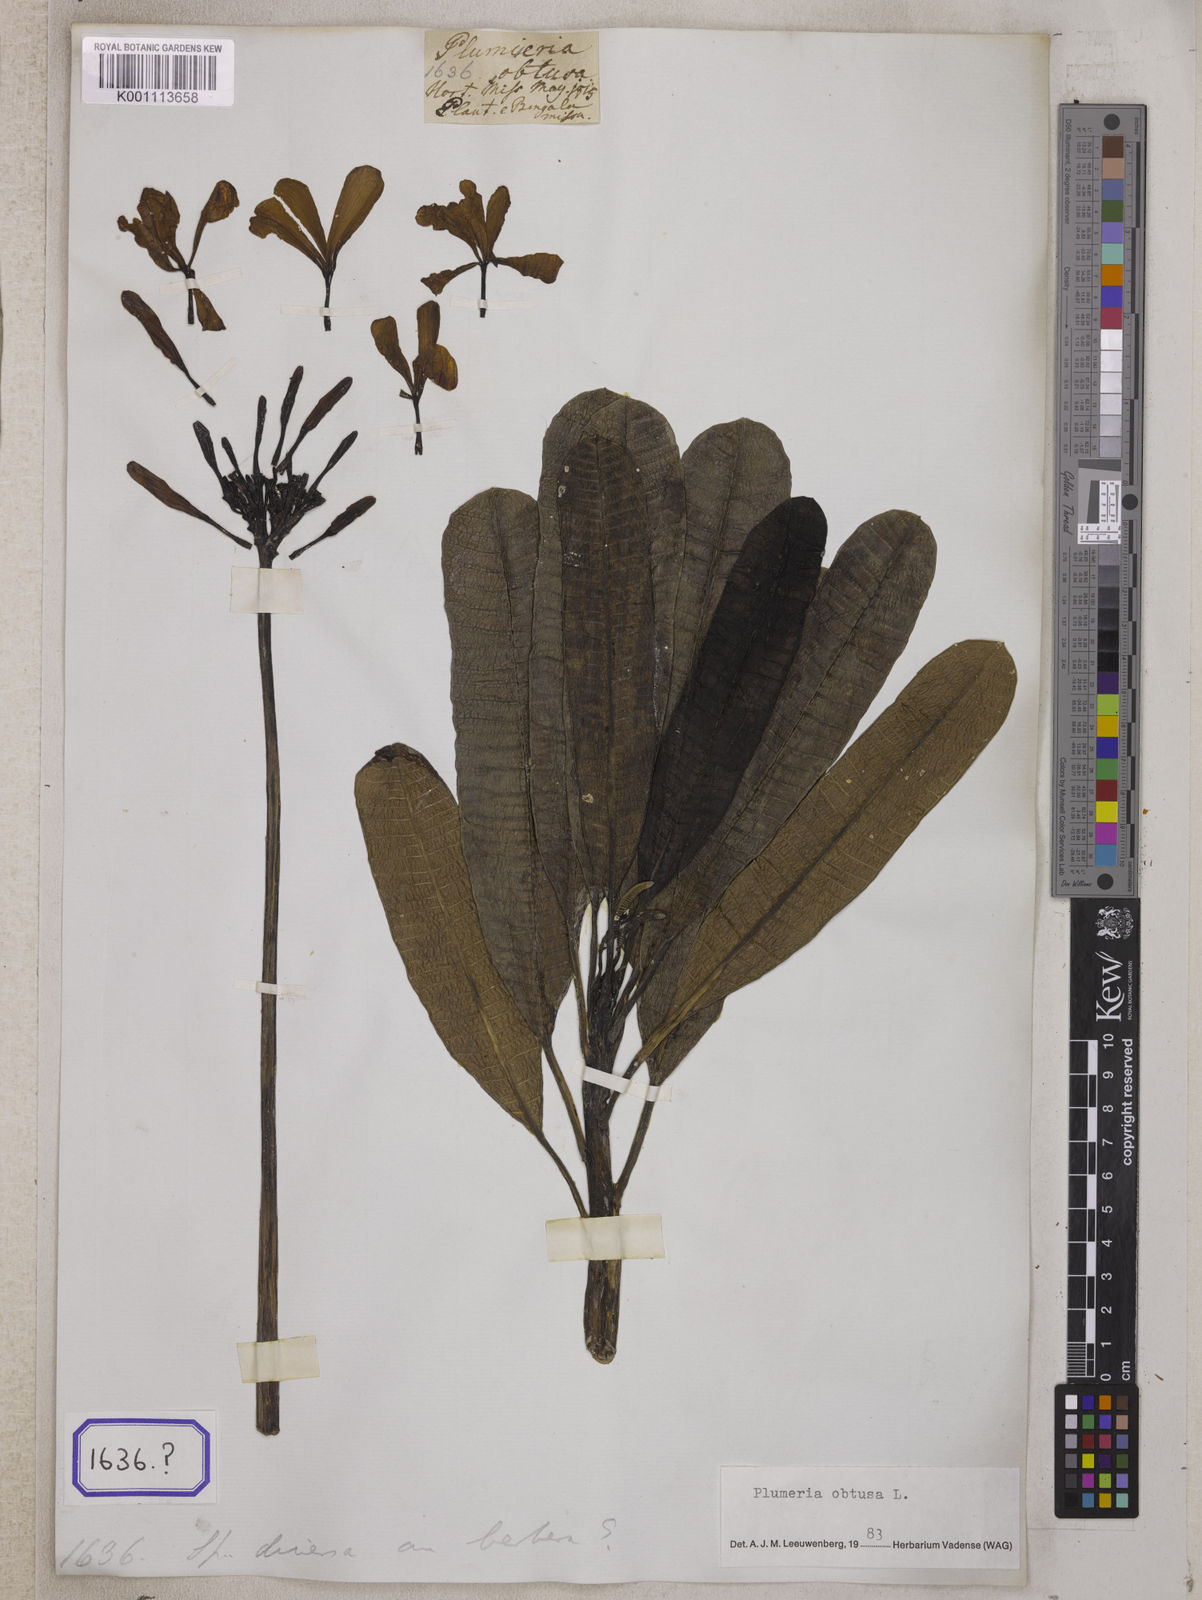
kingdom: Plantae
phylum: Tracheophyta
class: Magnoliopsida
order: Gentianales
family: Apocynaceae
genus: Plumeria
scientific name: Plumeria rubra
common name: Pagoda-tree
